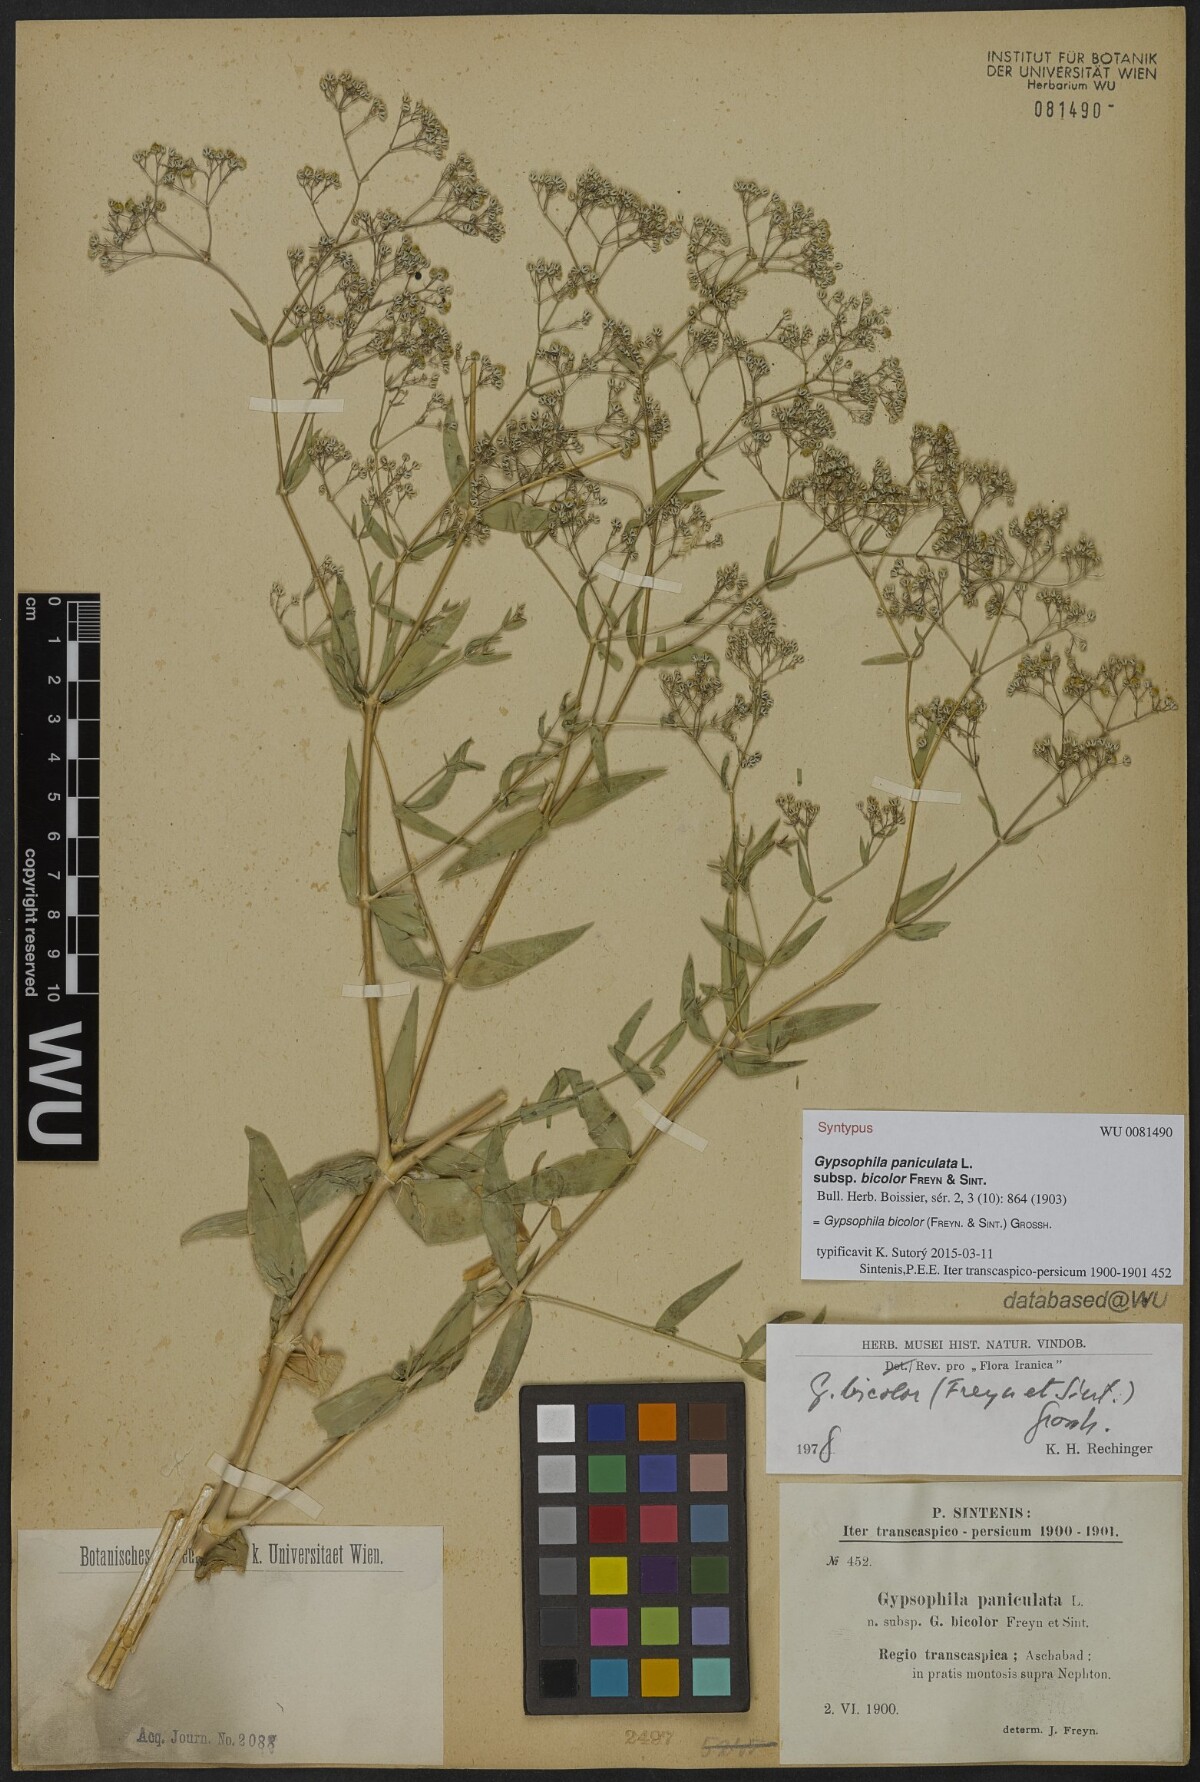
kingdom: Plantae
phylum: Tracheophyta
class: Magnoliopsida
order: Caryophyllales
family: Caryophyllaceae
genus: Gypsophila
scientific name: Gypsophila bicolor
